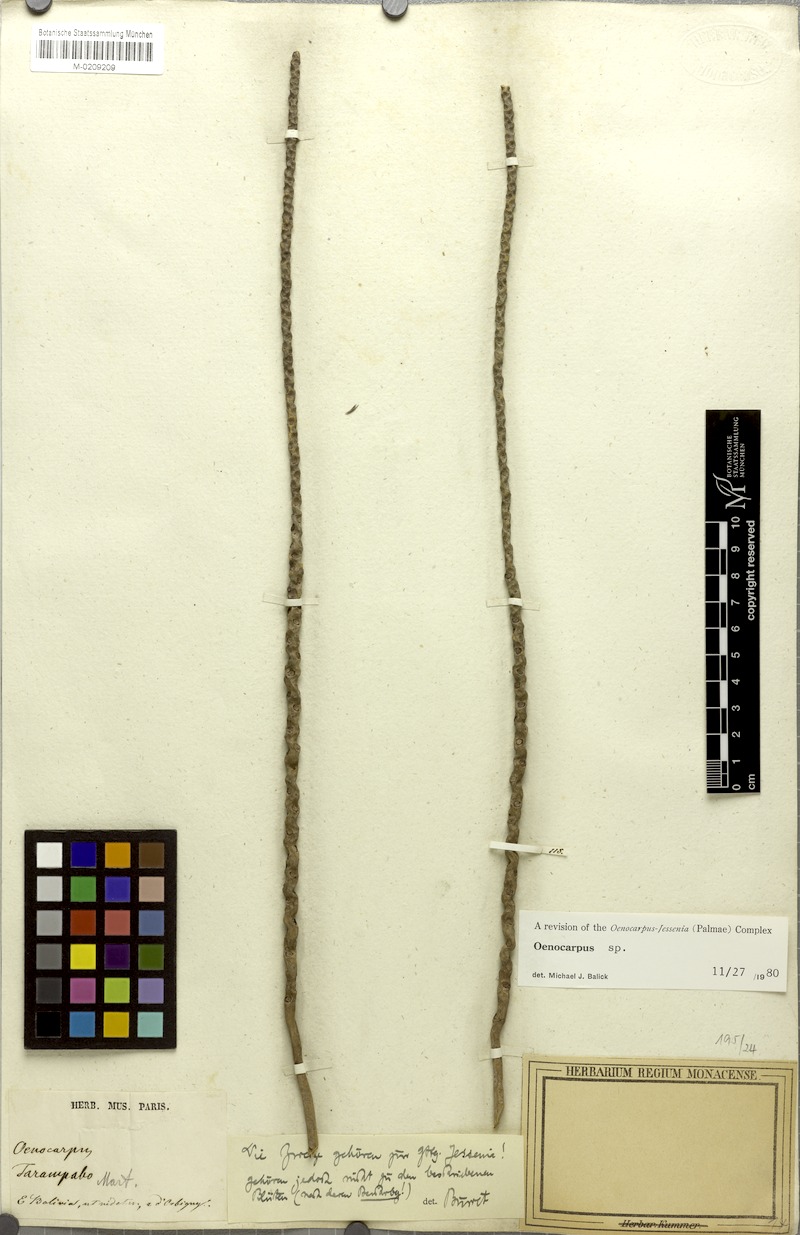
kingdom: Plantae
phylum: Tracheophyta
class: Liliopsida
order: Arecales
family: Arecaceae
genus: Oenocarpus
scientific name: Oenocarpus
